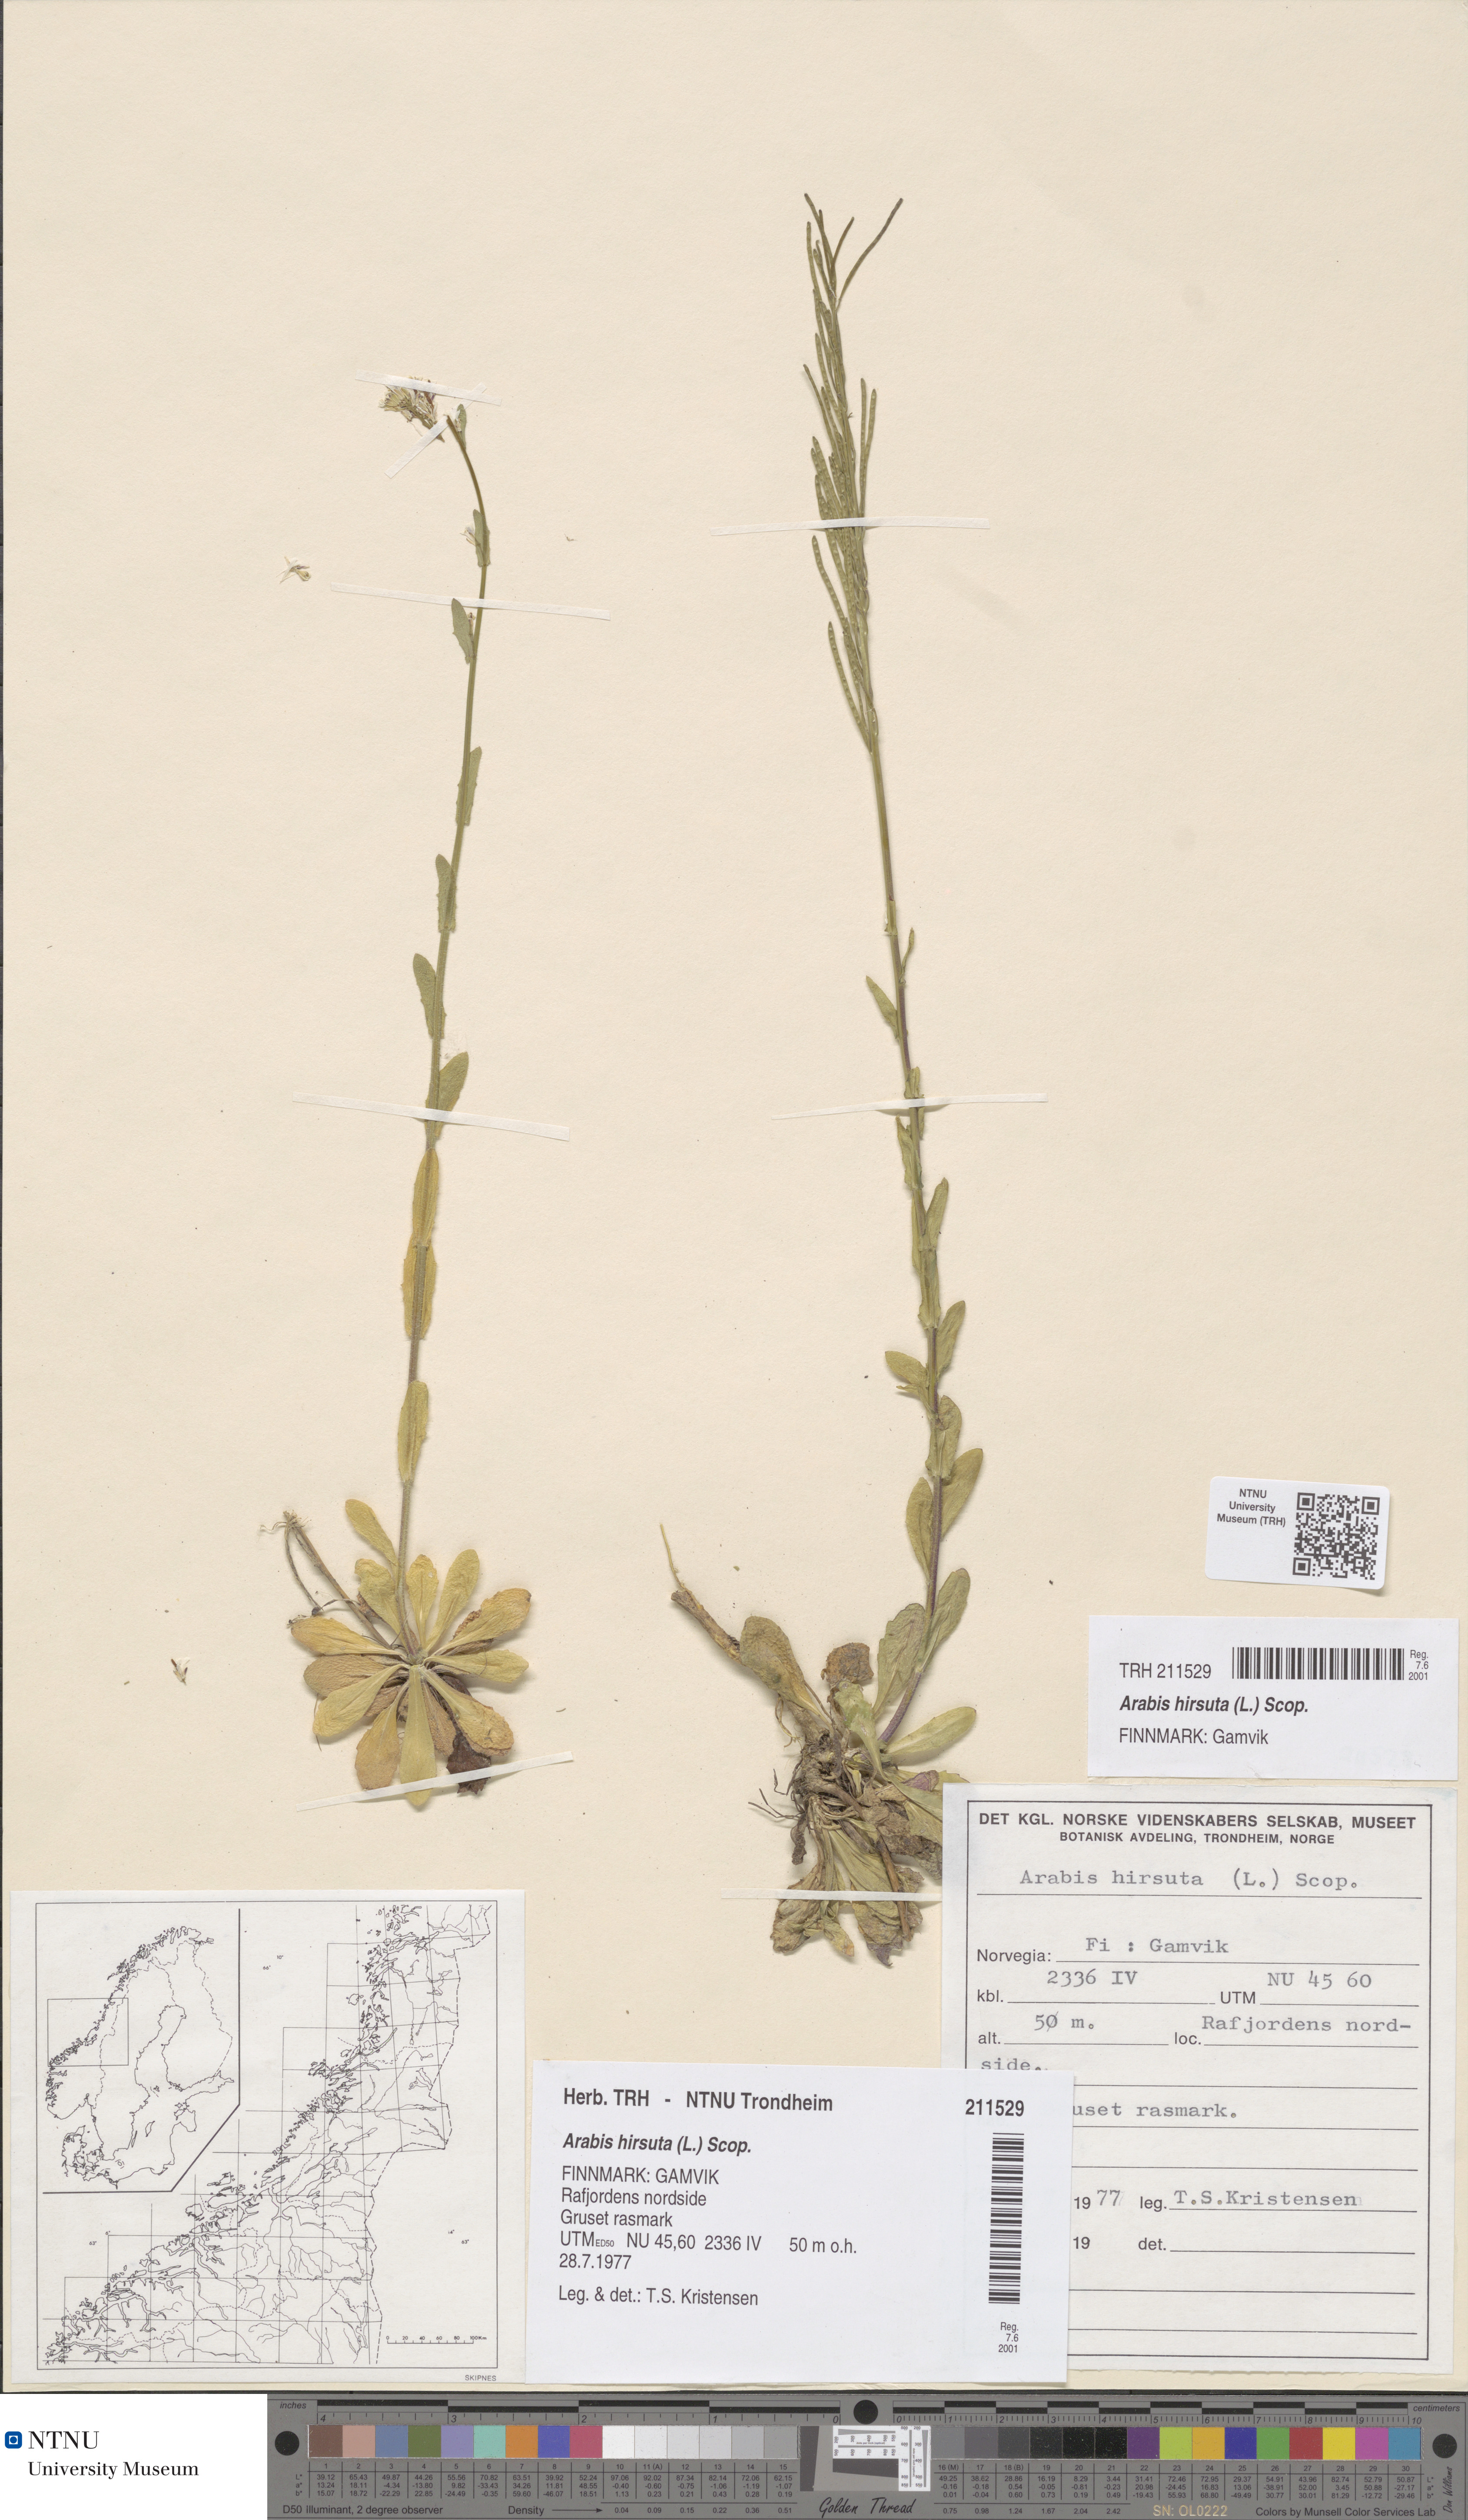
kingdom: Plantae
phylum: Tracheophyta
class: Magnoliopsida
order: Brassicales
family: Brassicaceae
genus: Arabis
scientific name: Arabis hirsuta
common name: Hairy rock-cress
